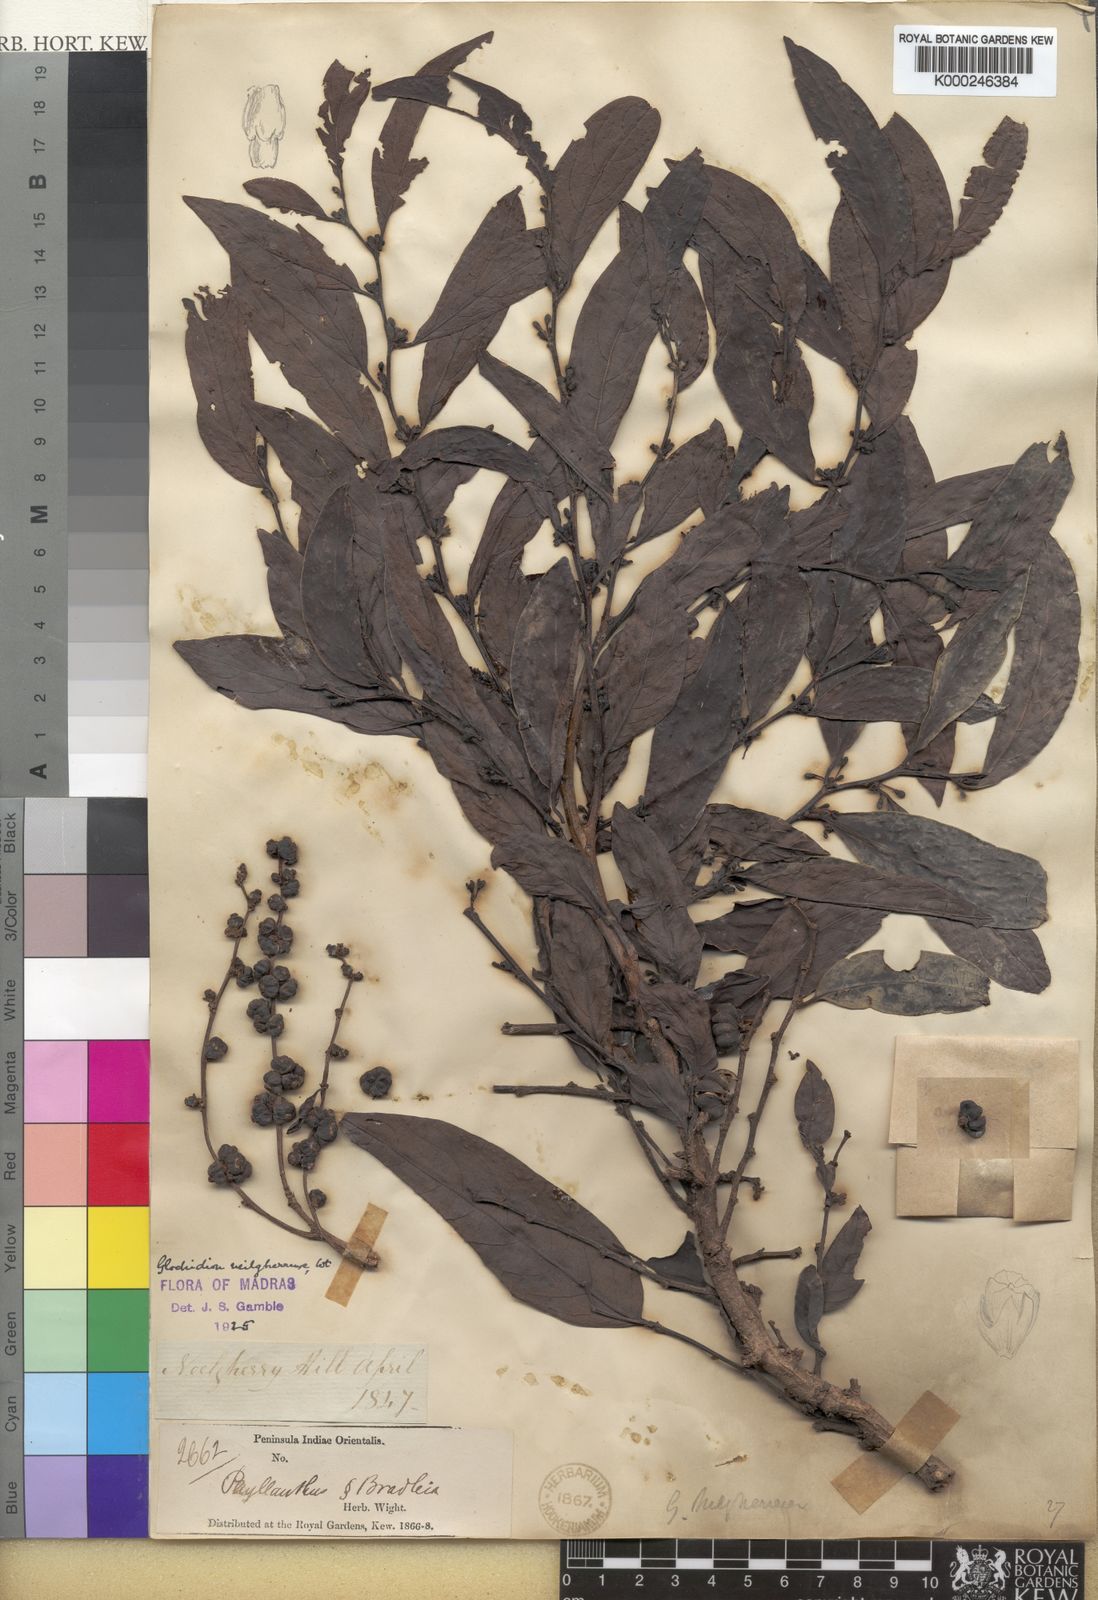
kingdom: Plantae
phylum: Tracheophyta
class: Magnoliopsida
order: Malpighiales
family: Phyllanthaceae
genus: Glochidion
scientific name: Glochidion candolleanum
